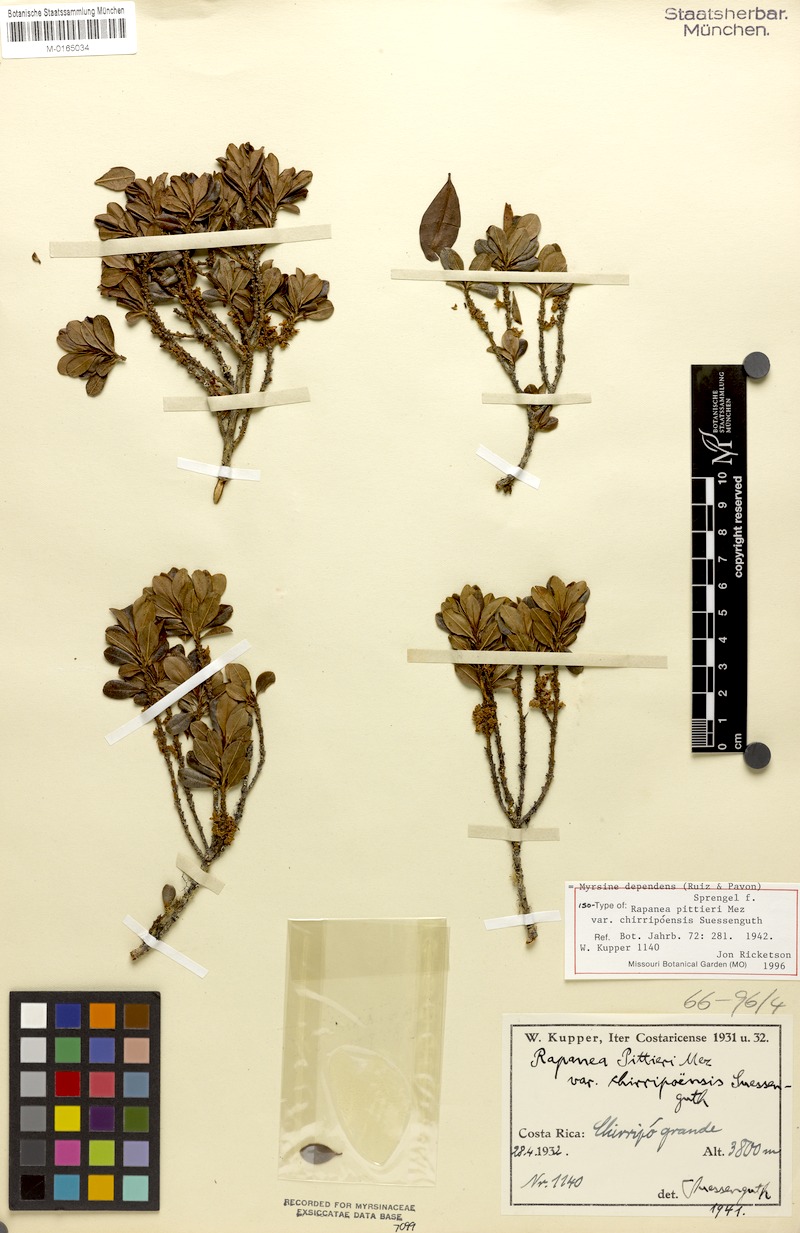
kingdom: Plantae
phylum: Tracheophyta
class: Magnoliopsida
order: Ericales
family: Primulaceae
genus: Myrsine
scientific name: Myrsine dependens
